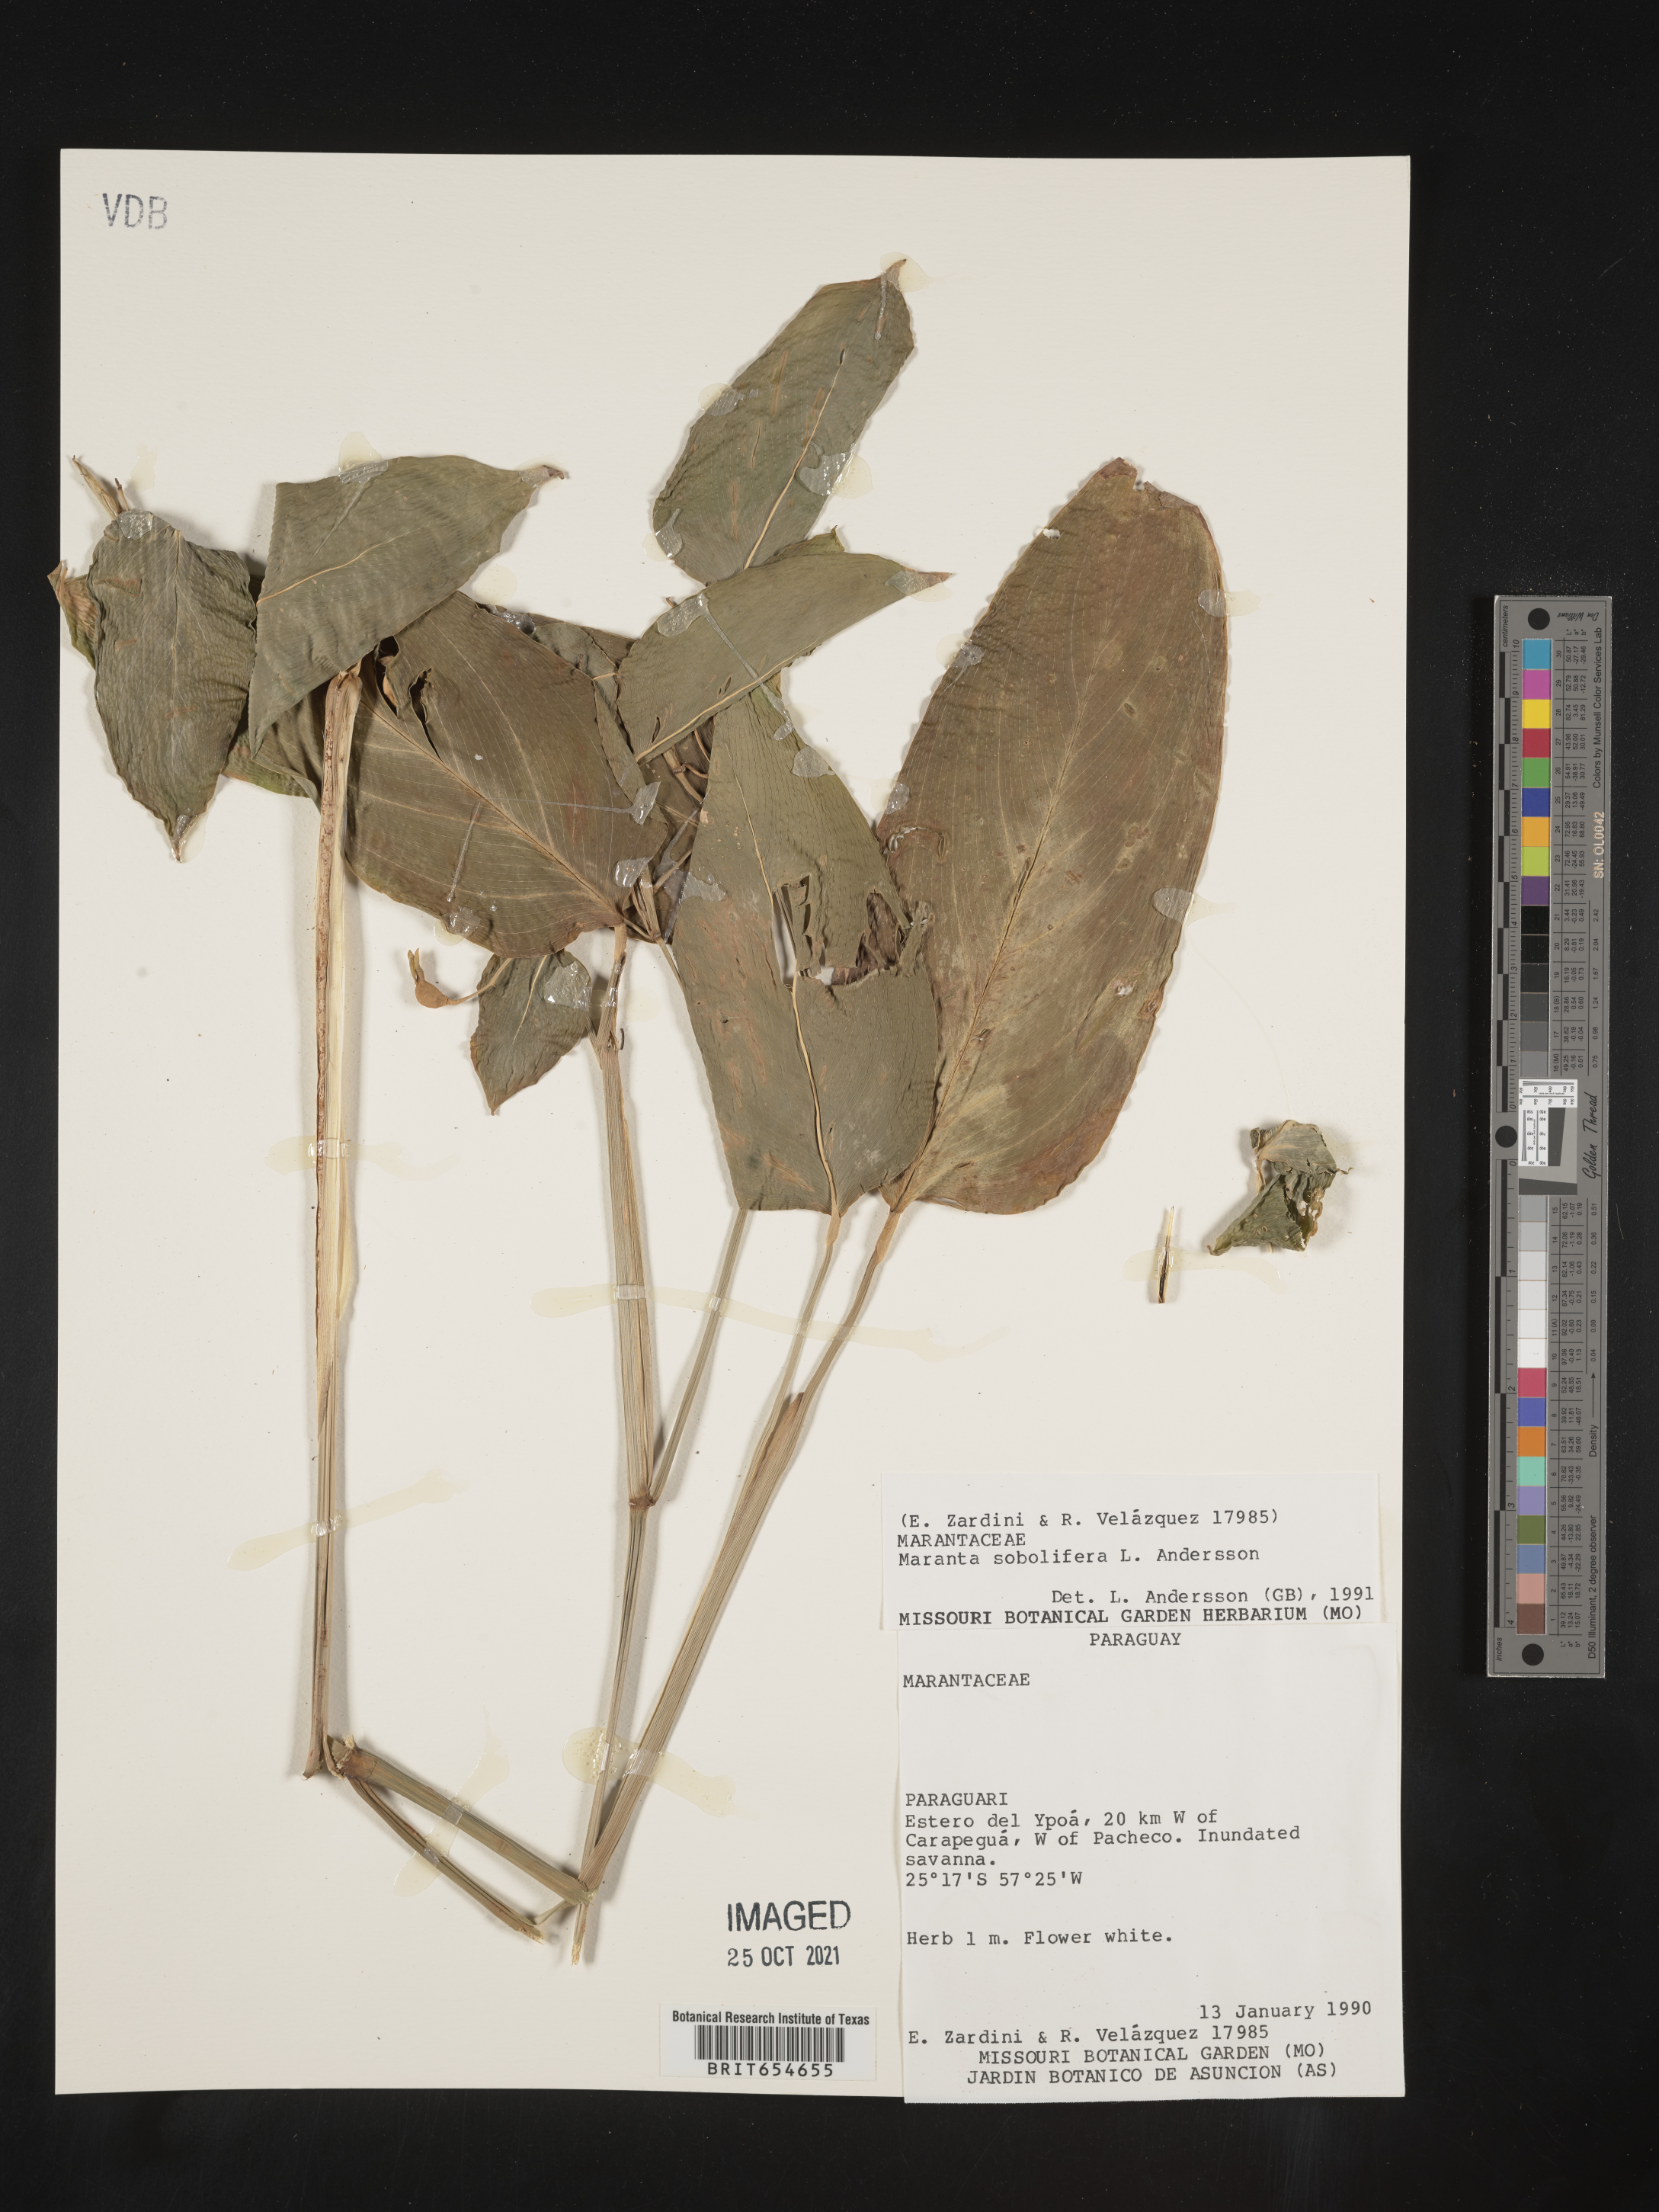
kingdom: Plantae
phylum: Tracheophyta
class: Liliopsida
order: Zingiberales
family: Marantaceae
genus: Maranta
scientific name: Maranta
